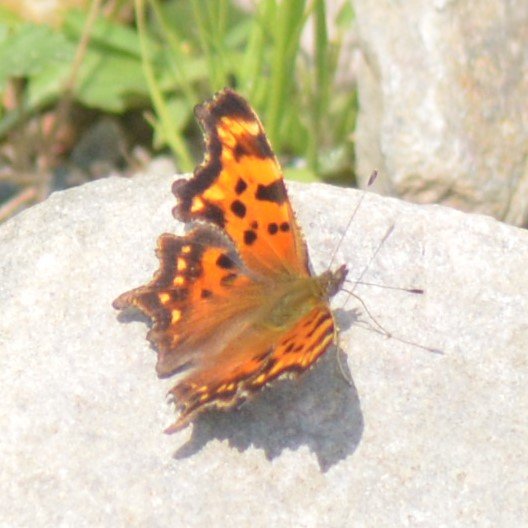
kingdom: Animalia
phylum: Arthropoda
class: Insecta
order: Lepidoptera
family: Nymphalidae
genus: Polygonia
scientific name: Polygonia
